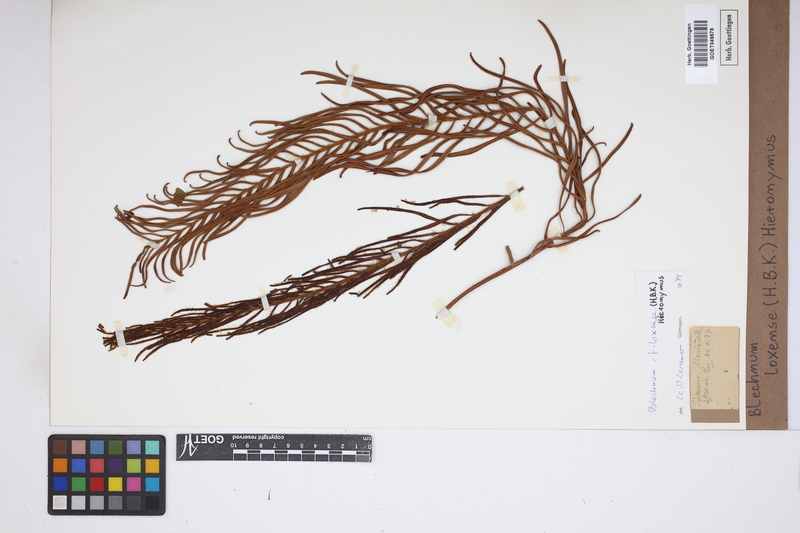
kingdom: Plantae
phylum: Tracheophyta
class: Polypodiopsida
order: Polypodiales
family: Blechnaceae
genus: Parablechnum
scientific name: Parablechnum loxense
